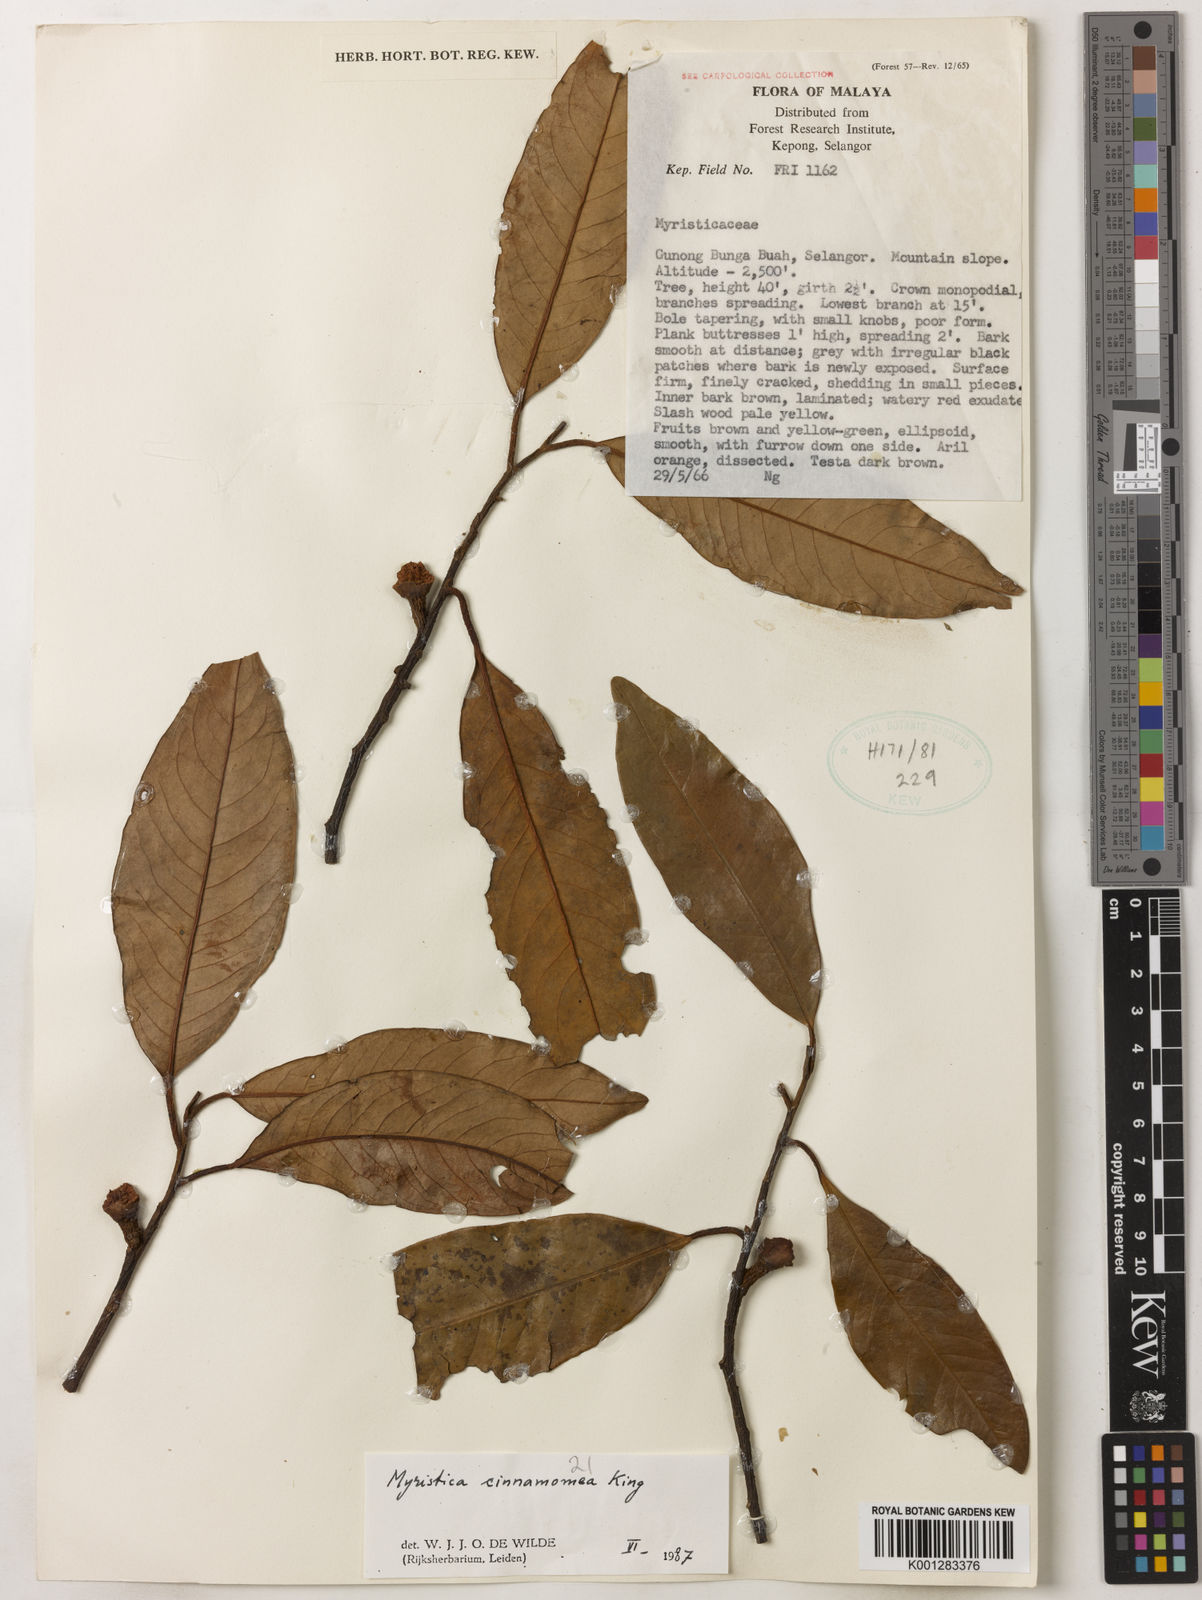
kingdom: Plantae
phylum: Tracheophyta
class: Magnoliopsida
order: Magnoliales
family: Myristicaceae
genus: Myristica
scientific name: Myristica cinnamomea
